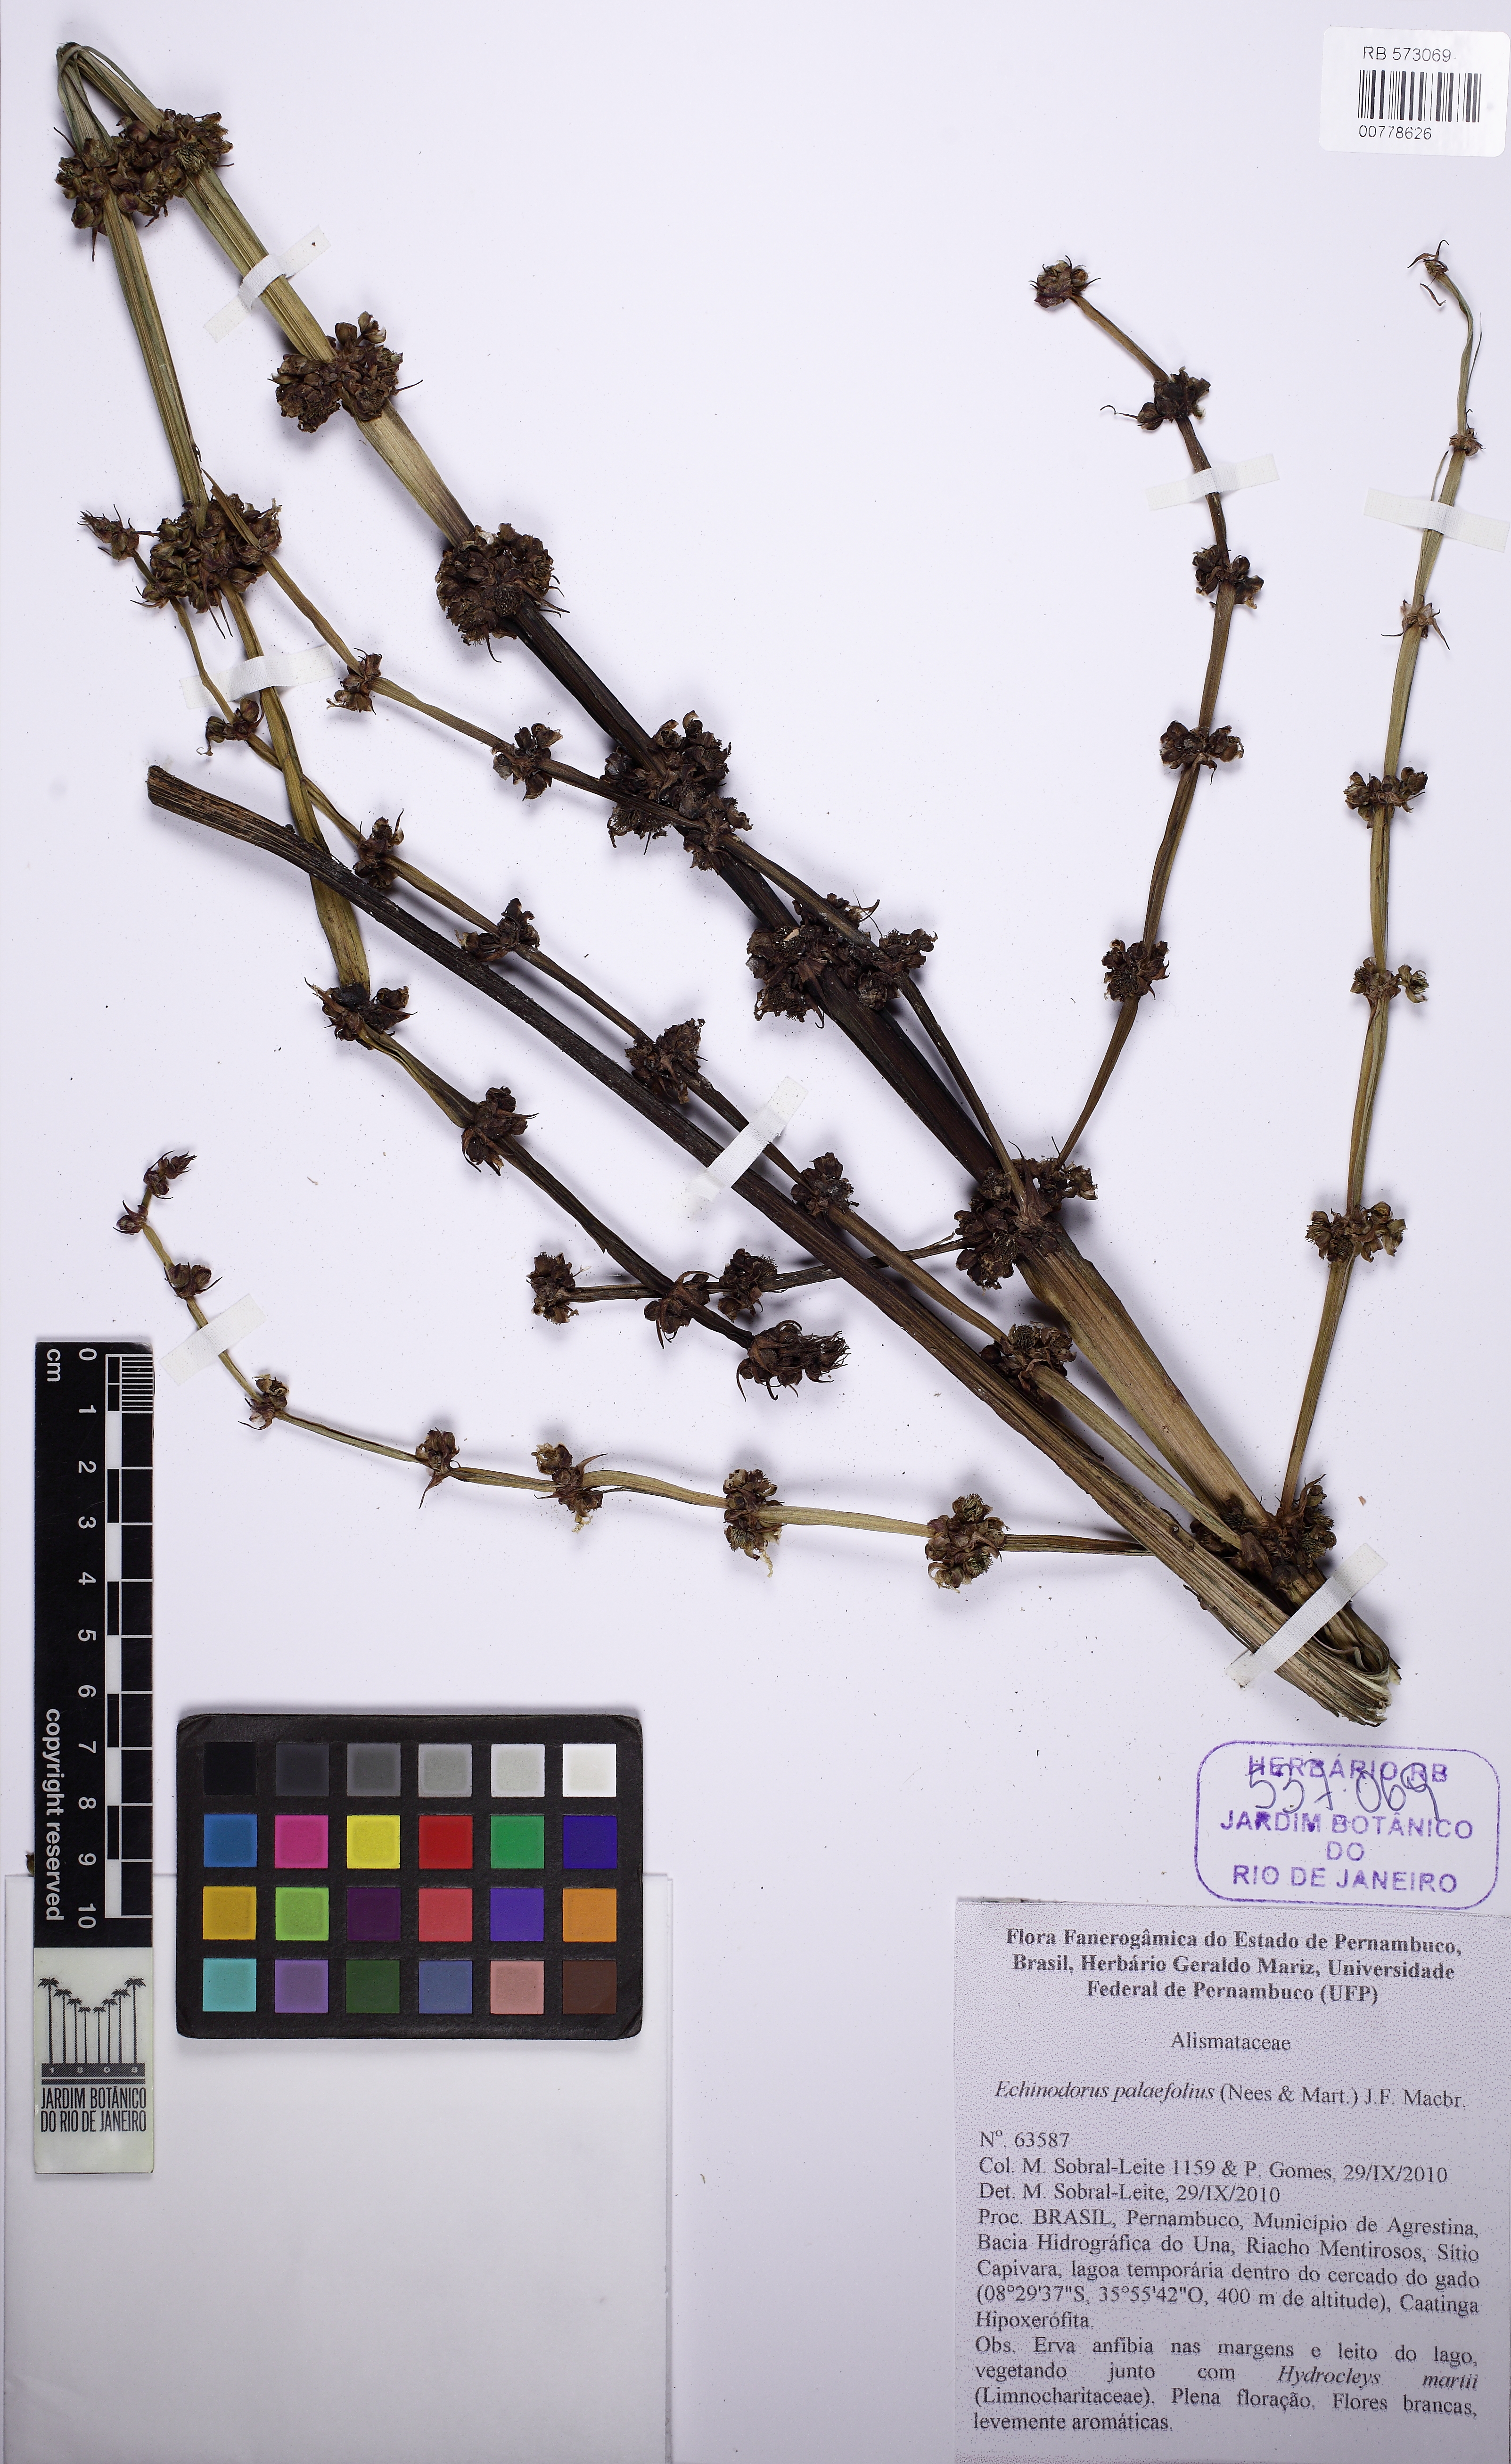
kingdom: Plantae
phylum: Tracheophyta
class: Liliopsida
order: Alismatales
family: Alismataceae
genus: Echinodorus
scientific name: Echinodorus palaefolius
